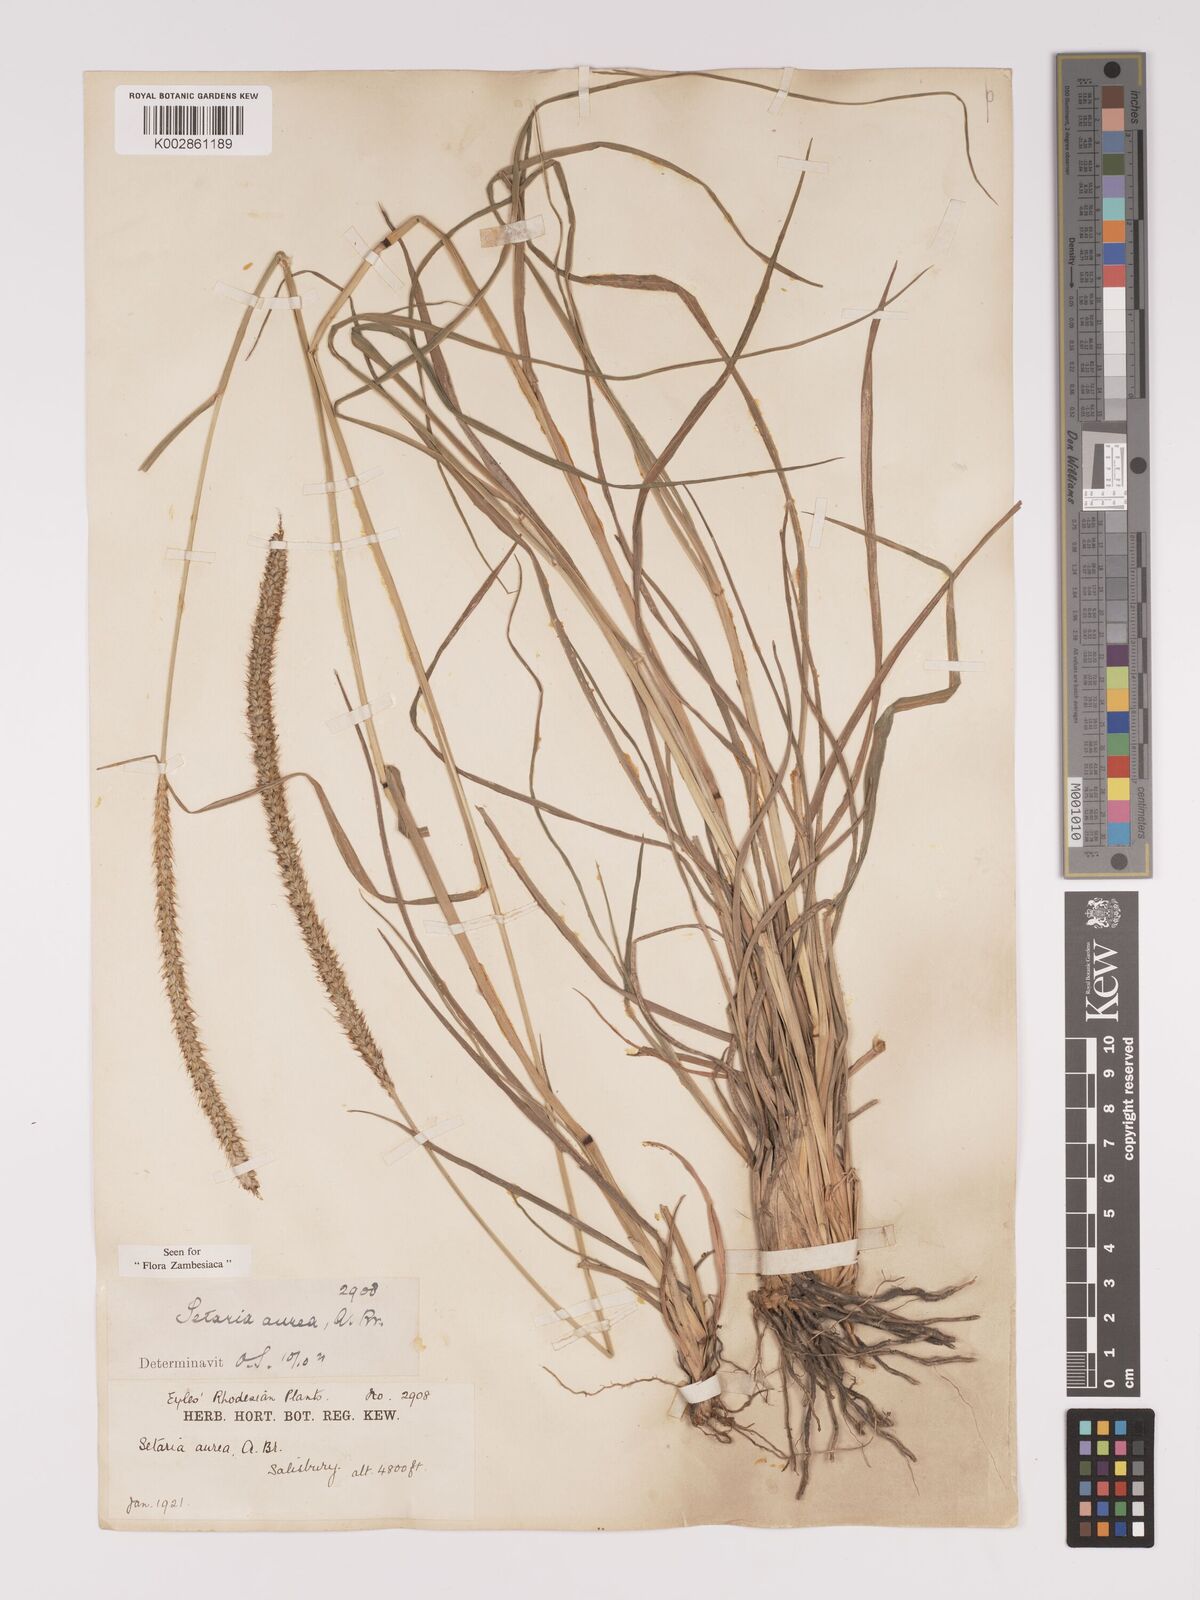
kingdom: Plantae
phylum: Tracheophyta
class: Liliopsida
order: Poales
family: Poaceae
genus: Setaria
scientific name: Setaria sphacelata
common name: African bristlegrass
